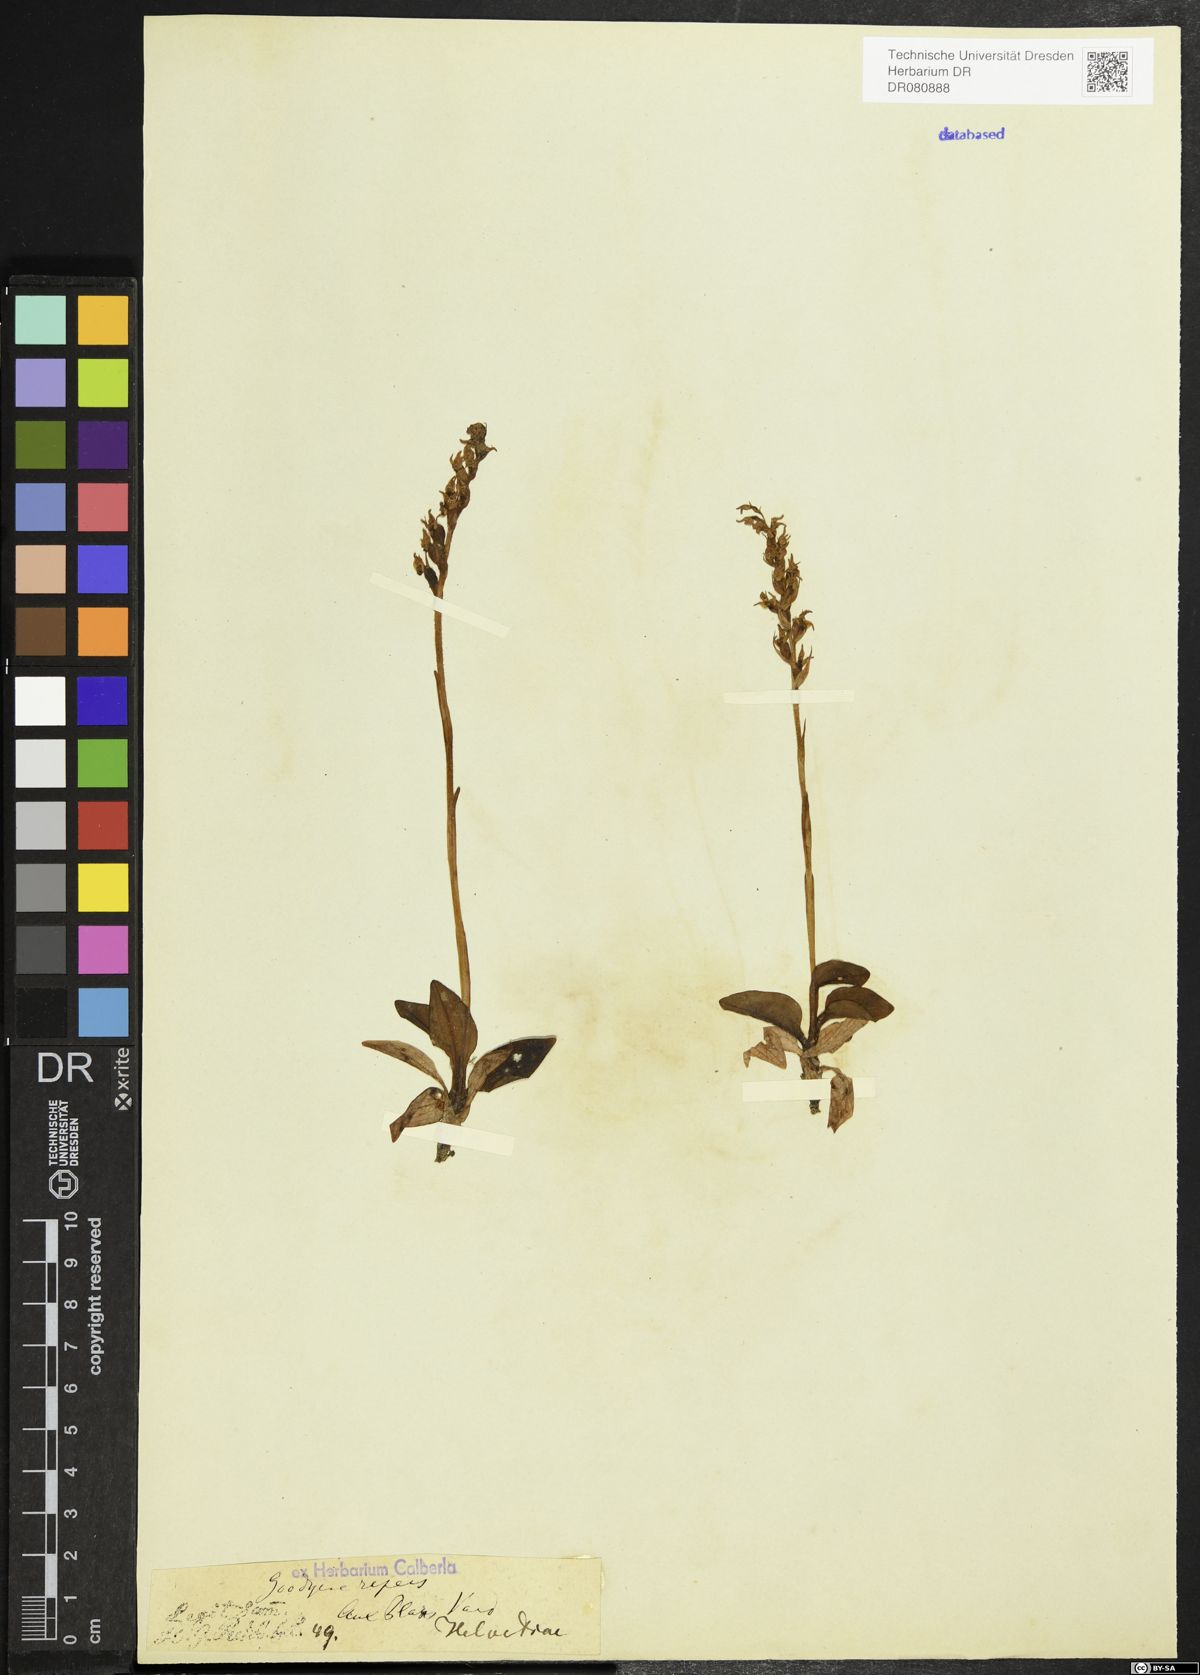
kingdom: Plantae
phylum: Tracheophyta
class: Liliopsida
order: Asparagales
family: Orchidaceae
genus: Goodyera
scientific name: Goodyera repens
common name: Creeping lady's-tresses
